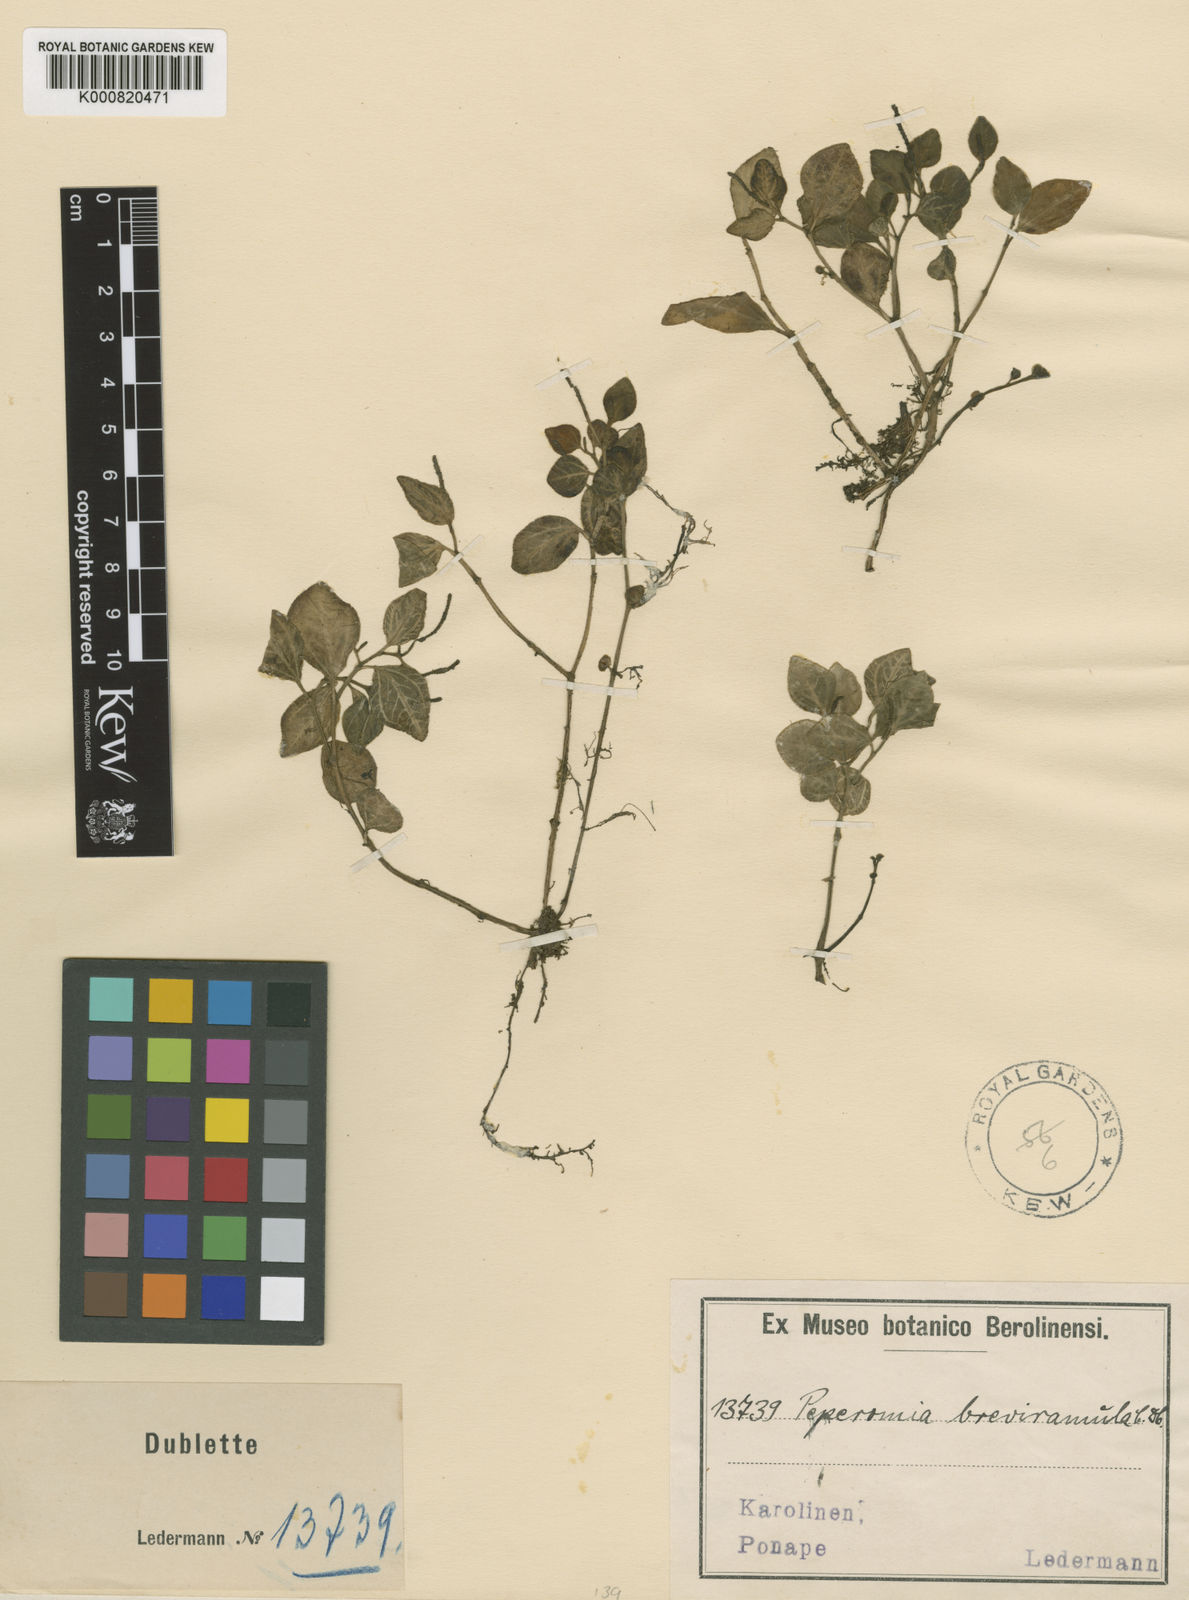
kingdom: Plantae
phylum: Tracheophyta
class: Magnoliopsida
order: Piperales
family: Piperaceae
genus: Peperomia
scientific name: Peperomia breviramula
